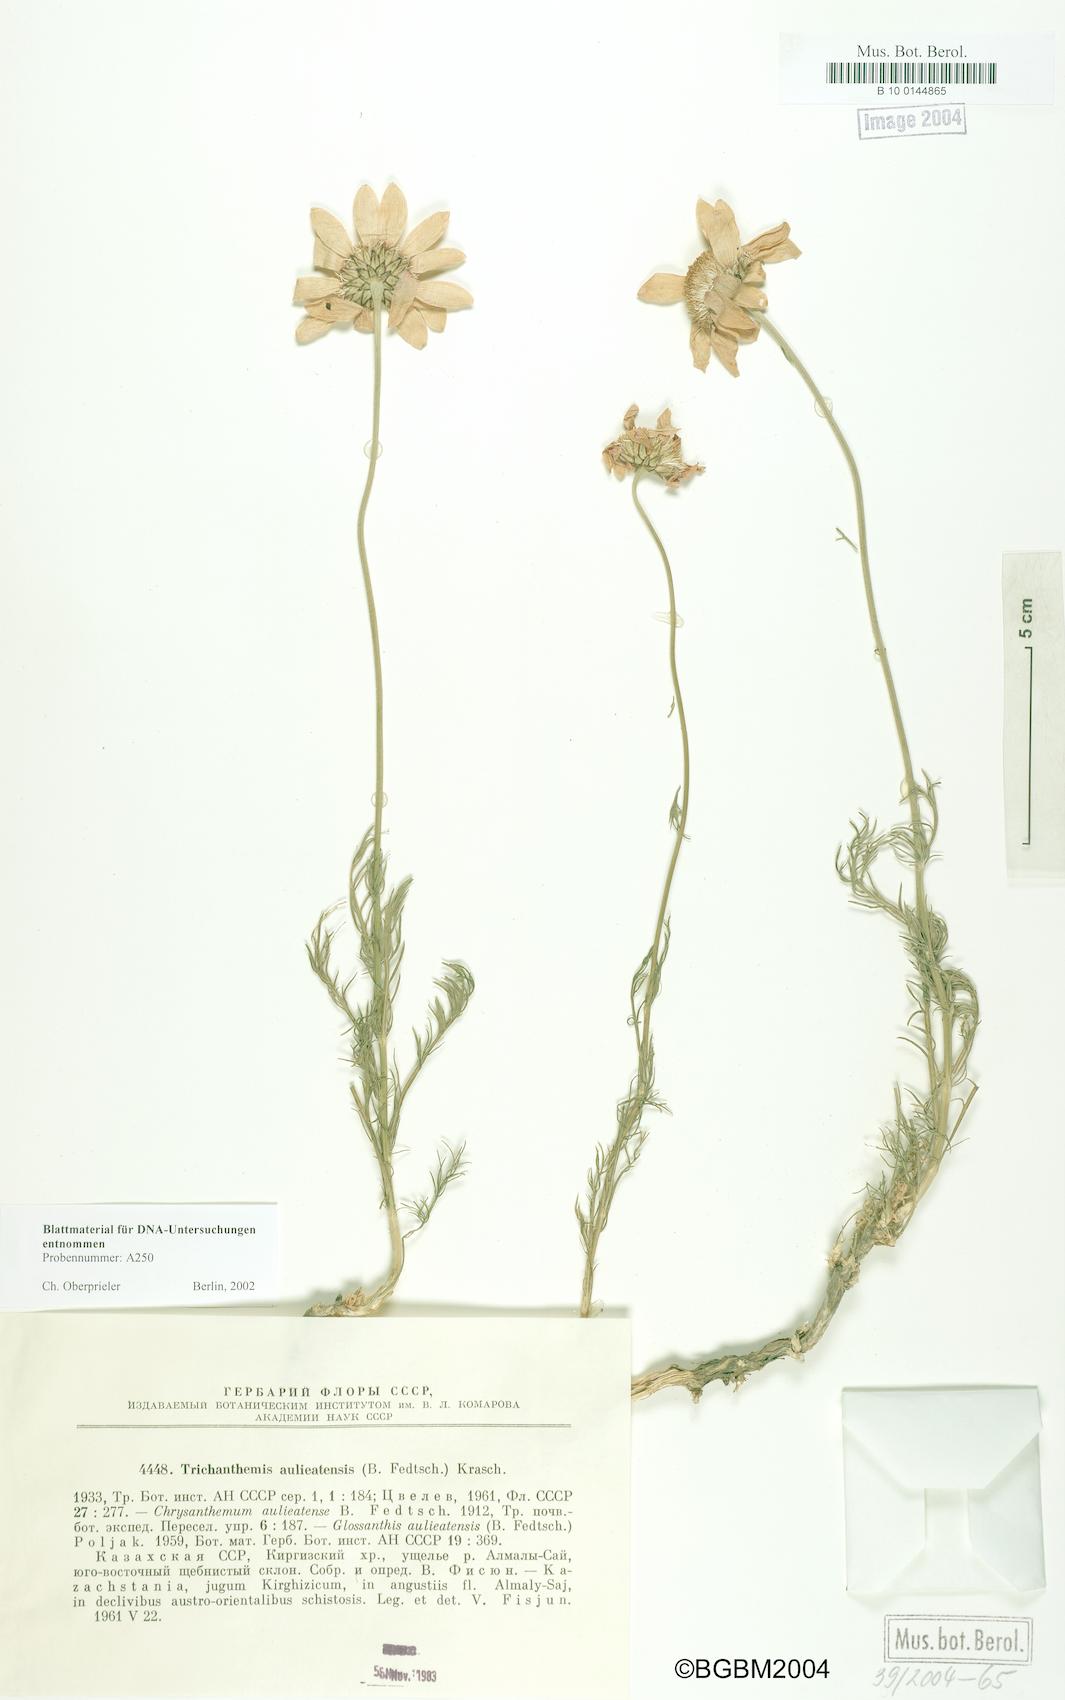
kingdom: Plantae
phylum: Tracheophyta
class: Magnoliopsida
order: Asterales
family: Asteraceae
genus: Trichanthemis
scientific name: Trichanthemis aulieatensis
